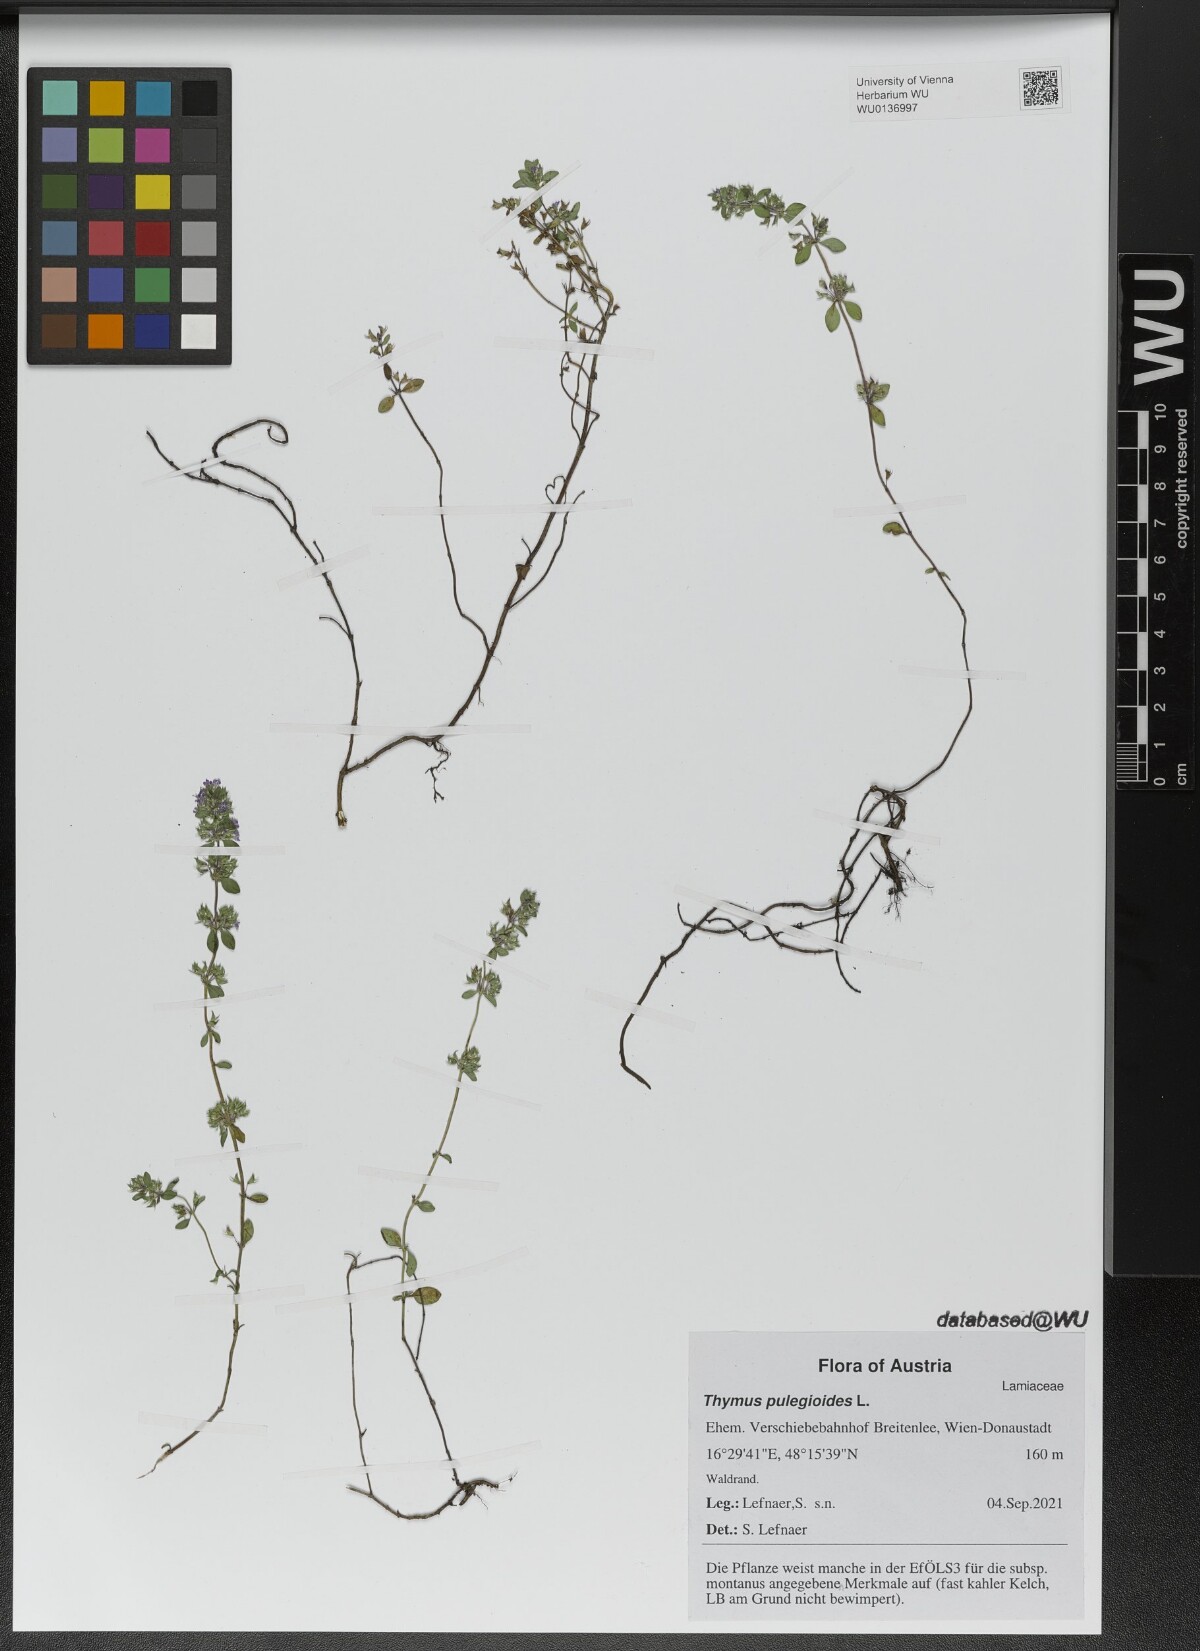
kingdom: Plantae
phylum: Tracheophyta
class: Magnoliopsida
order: Lamiales
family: Lamiaceae
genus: Thymus
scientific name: Thymus pulegioides
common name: Large thyme
